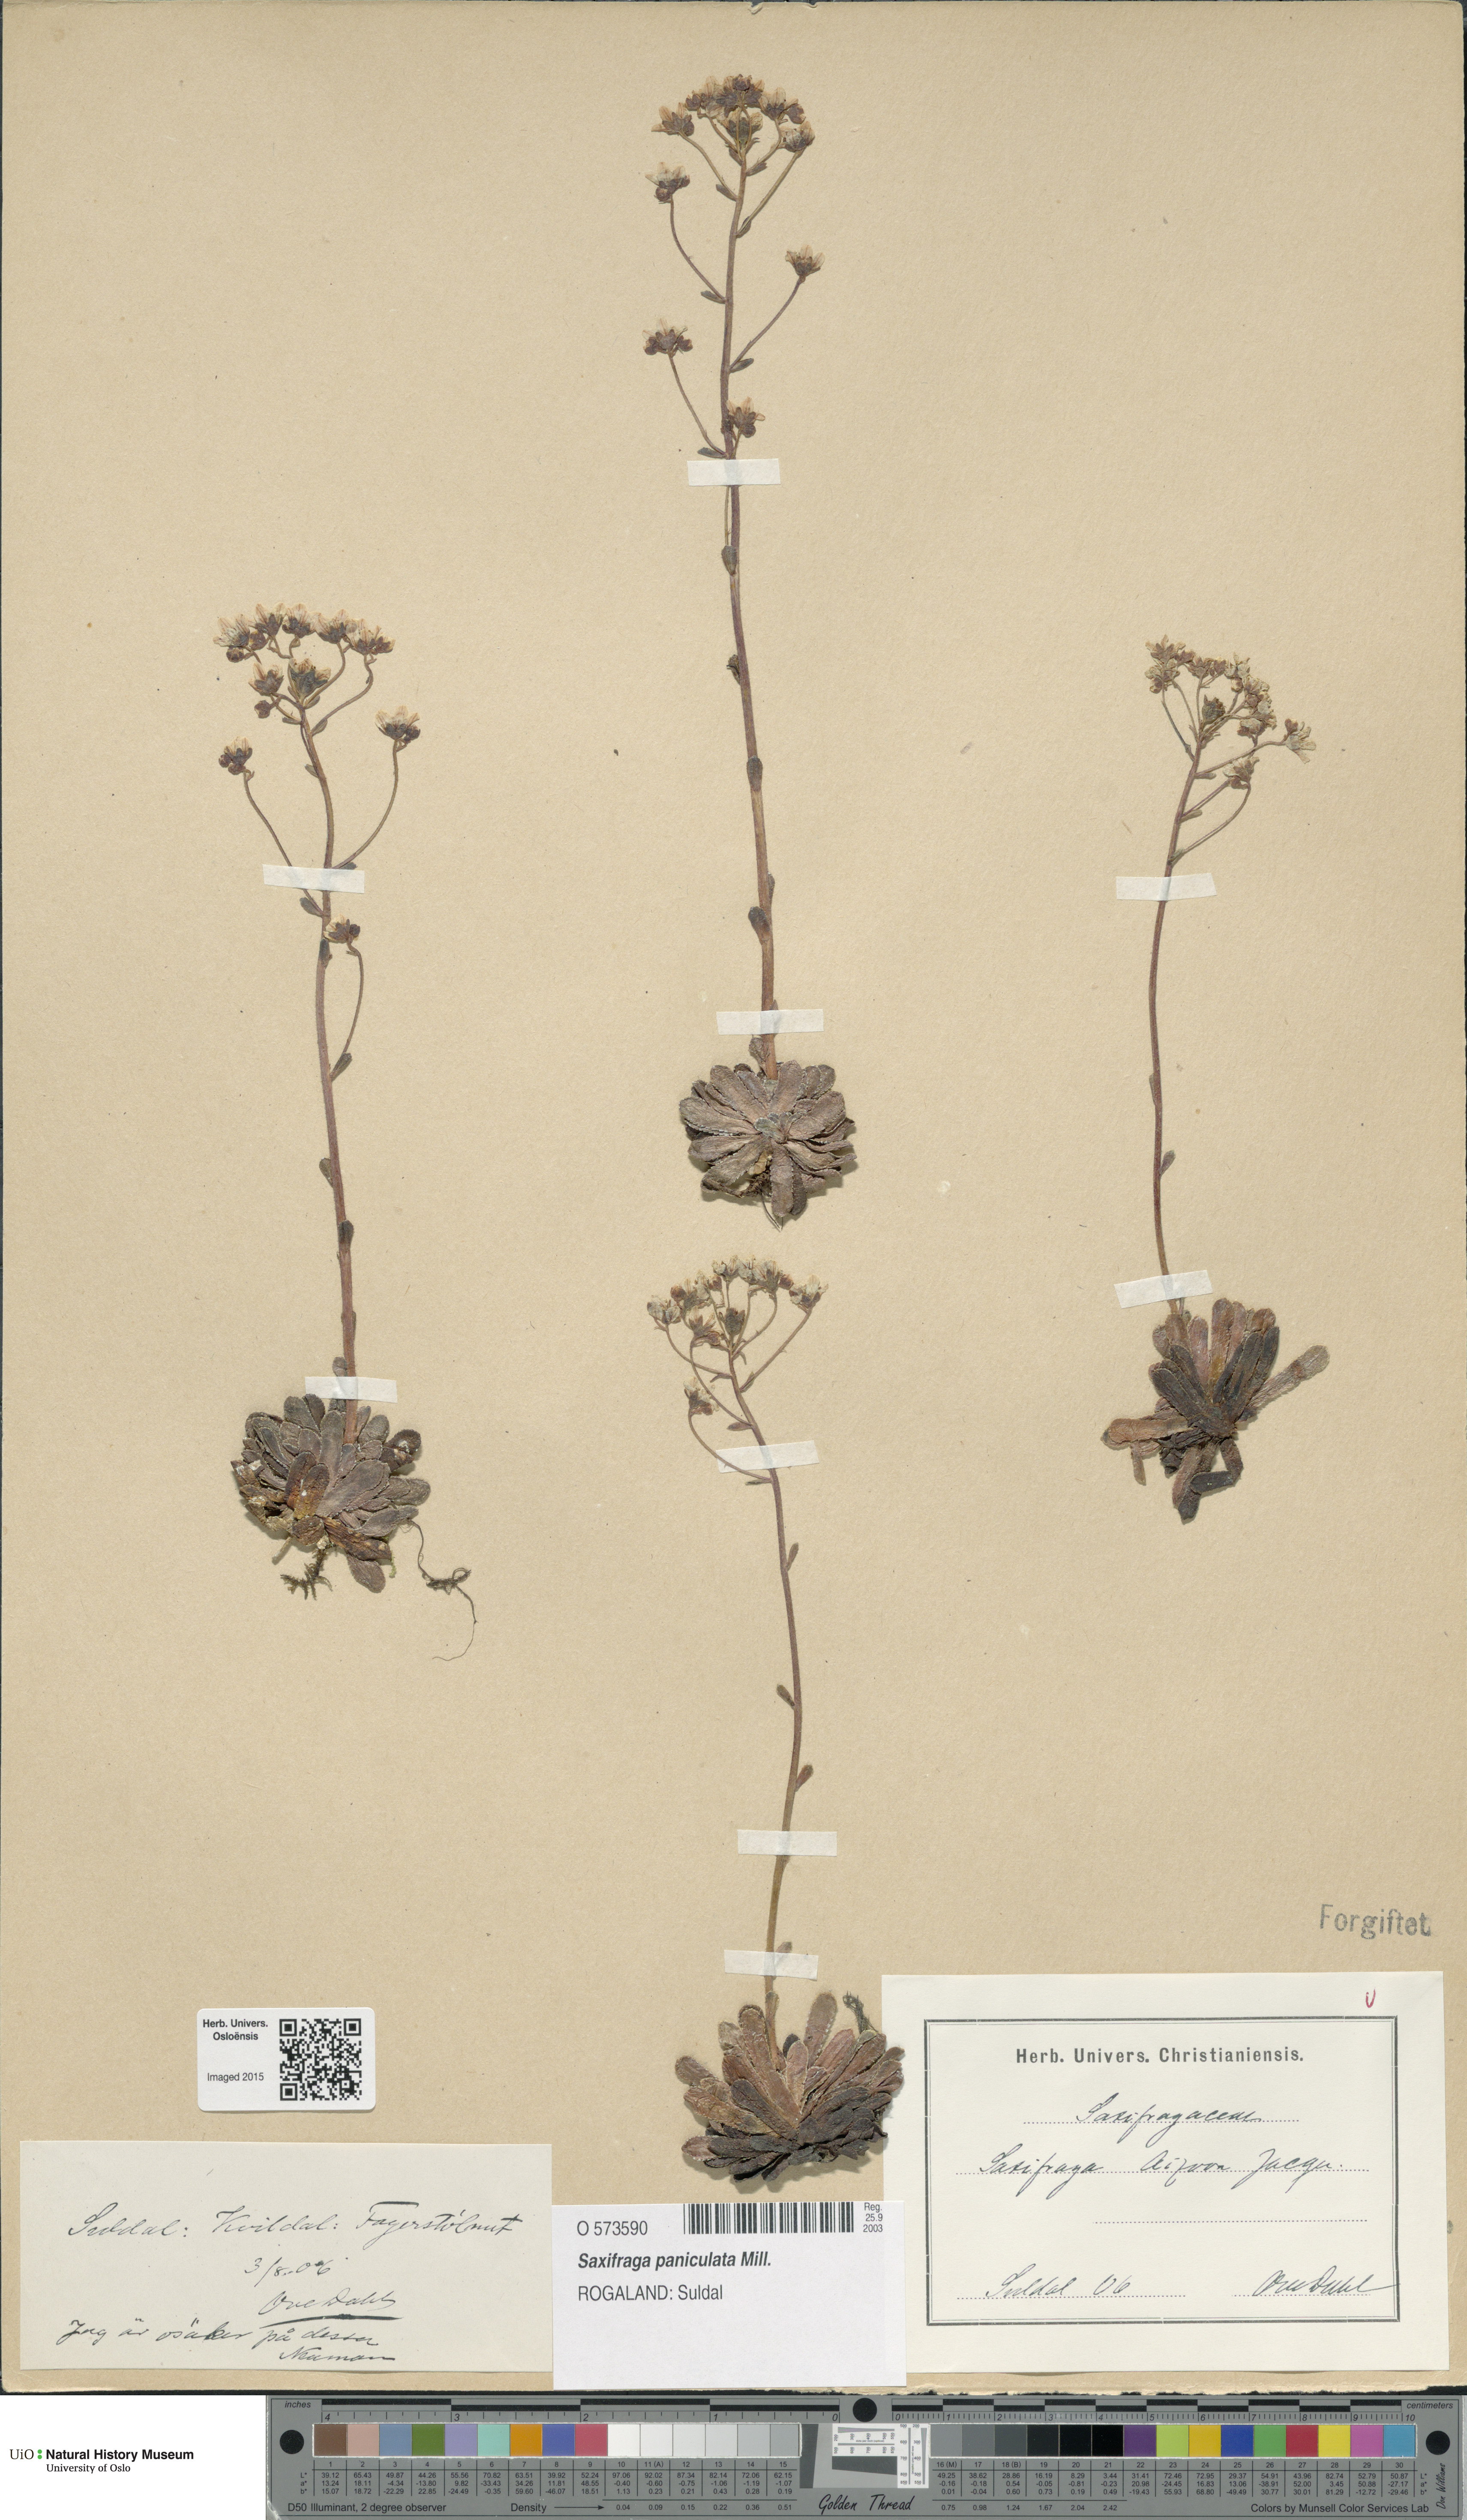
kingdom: Plantae
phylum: Tracheophyta
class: Magnoliopsida
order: Saxifragales
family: Saxifragaceae
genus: Saxifraga
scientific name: Saxifraga paniculata
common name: Livelong saxifrage
